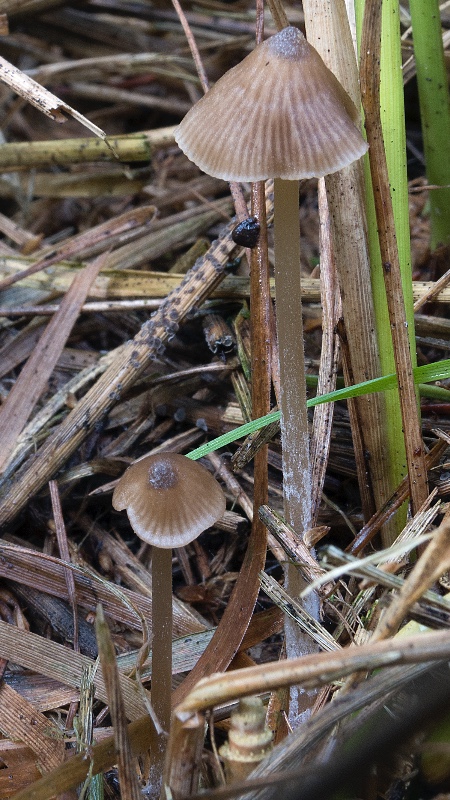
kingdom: Fungi
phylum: Basidiomycota
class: Agaricomycetes
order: Agaricales
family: Entolomataceae
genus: Entoloma
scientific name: Entoloma cornicolor
